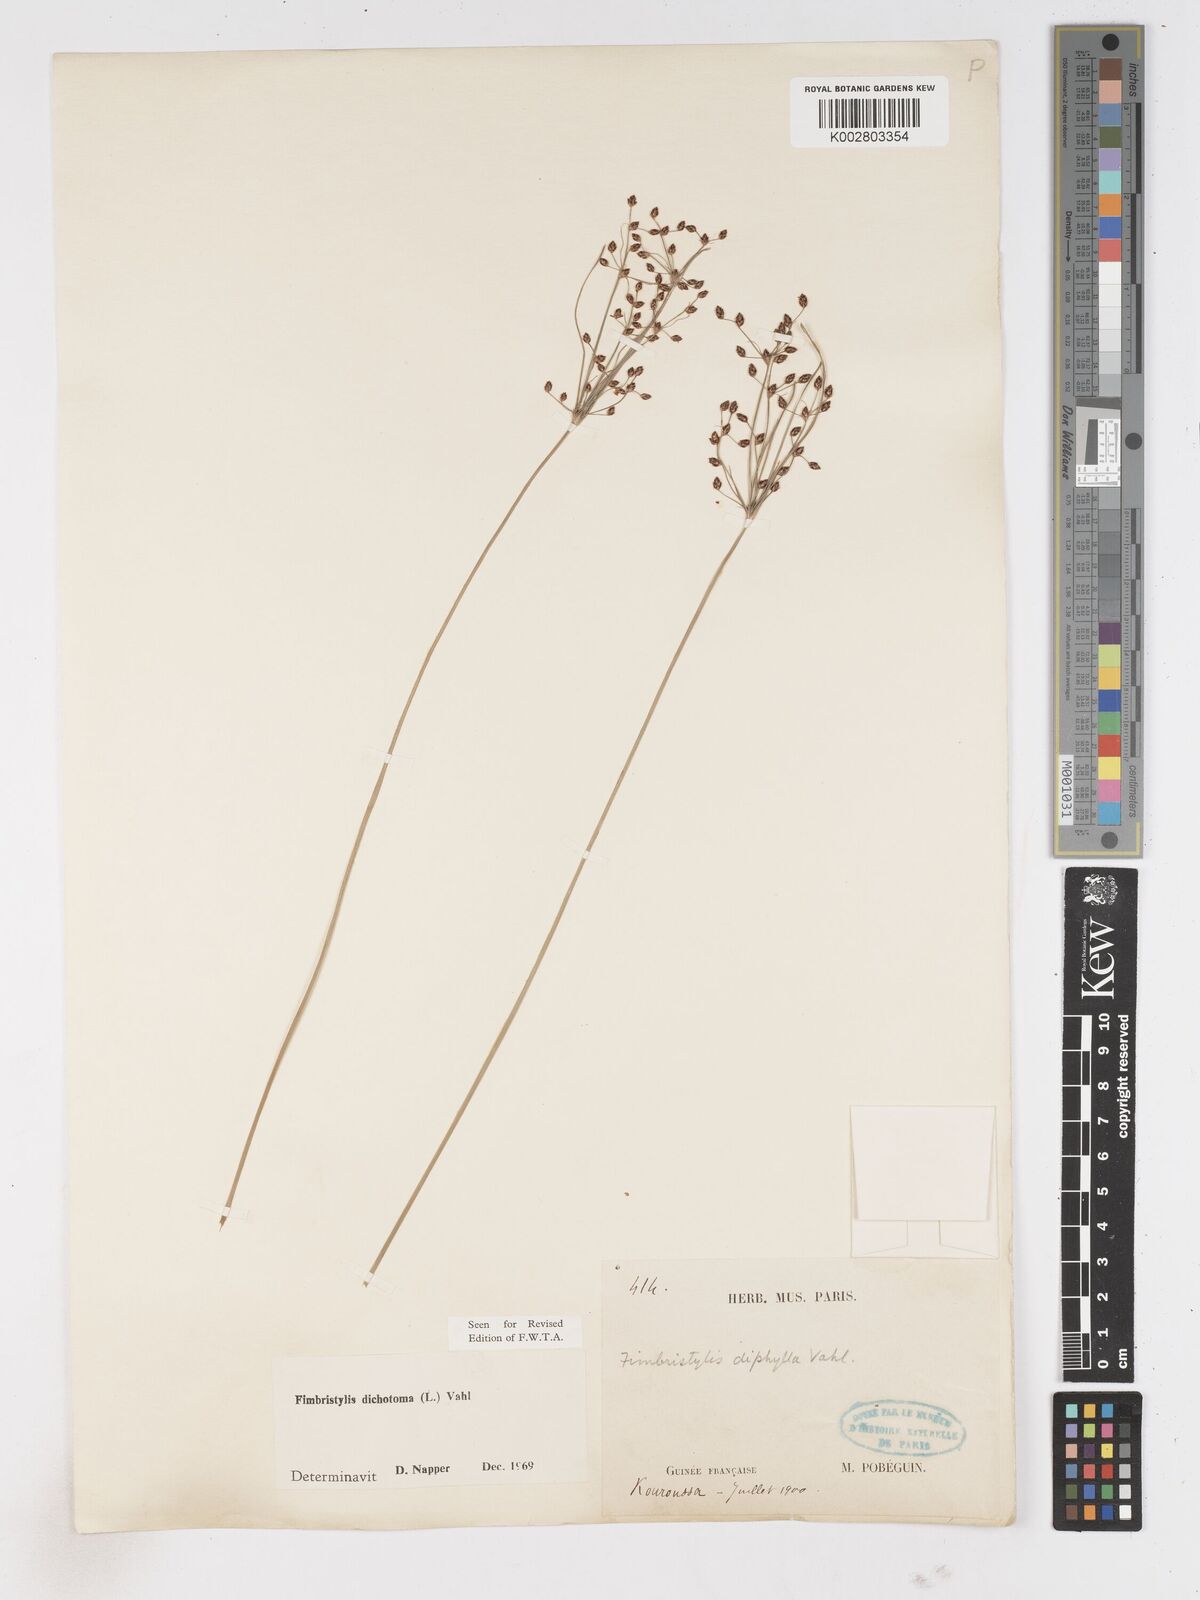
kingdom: Plantae
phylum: Tracheophyta
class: Liliopsida
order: Poales
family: Cyperaceae
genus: Fimbristylis
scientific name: Fimbristylis dichotoma
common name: Forked fimbry
